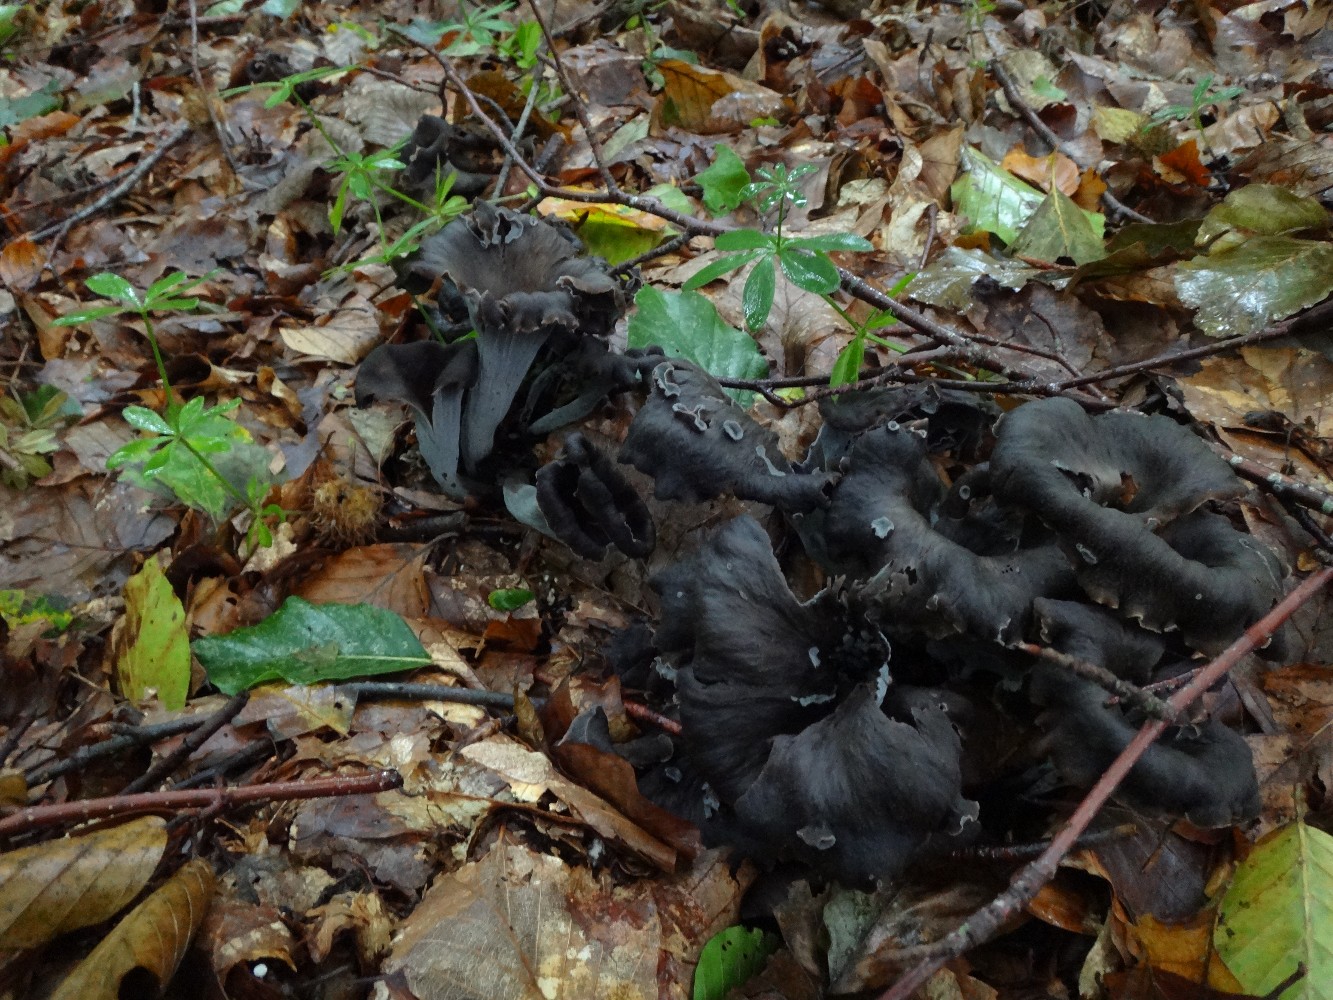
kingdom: Fungi
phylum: Basidiomycota
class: Agaricomycetes
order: Cantharellales
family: Hydnaceae
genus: Craterellus
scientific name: Craterellus cornucopioides
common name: trompetsvamp
